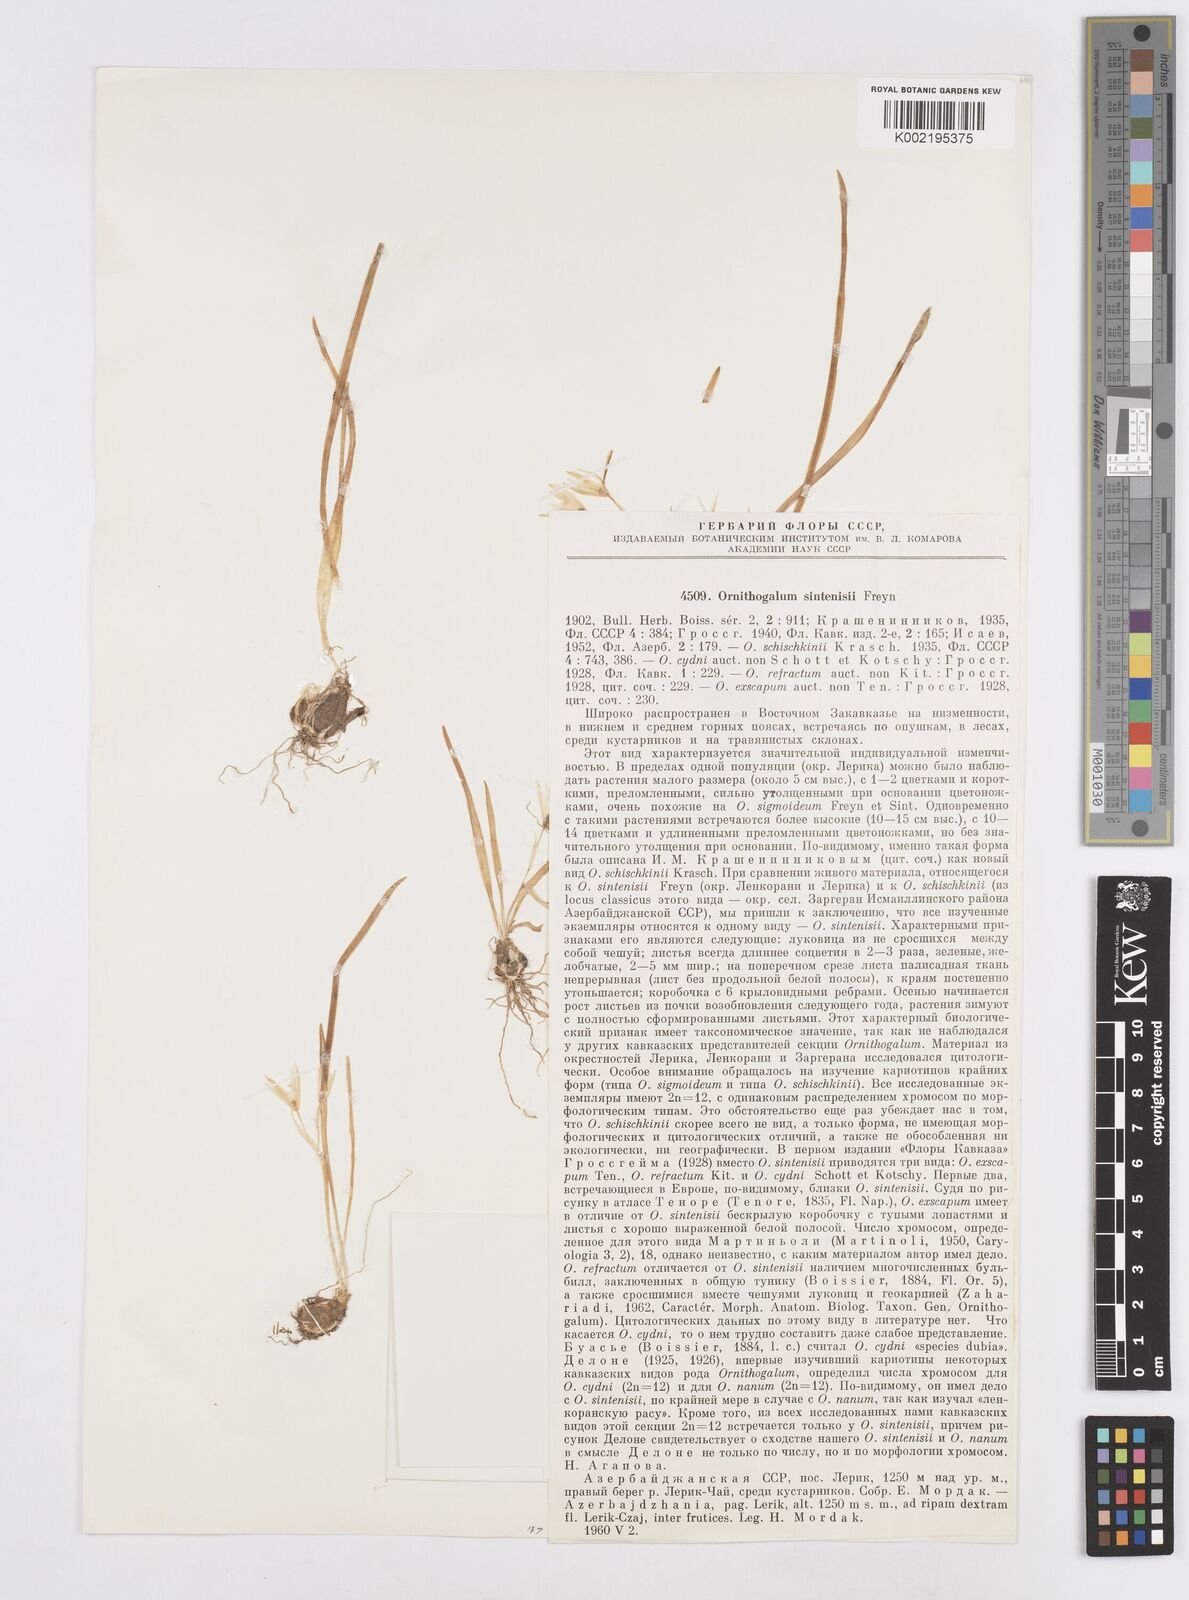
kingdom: Plantae
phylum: Tracheophyta
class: Liliopsida
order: Asparagales
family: Asparagaceae
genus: Ornithogalum
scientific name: Ornithogalum sintenisii
